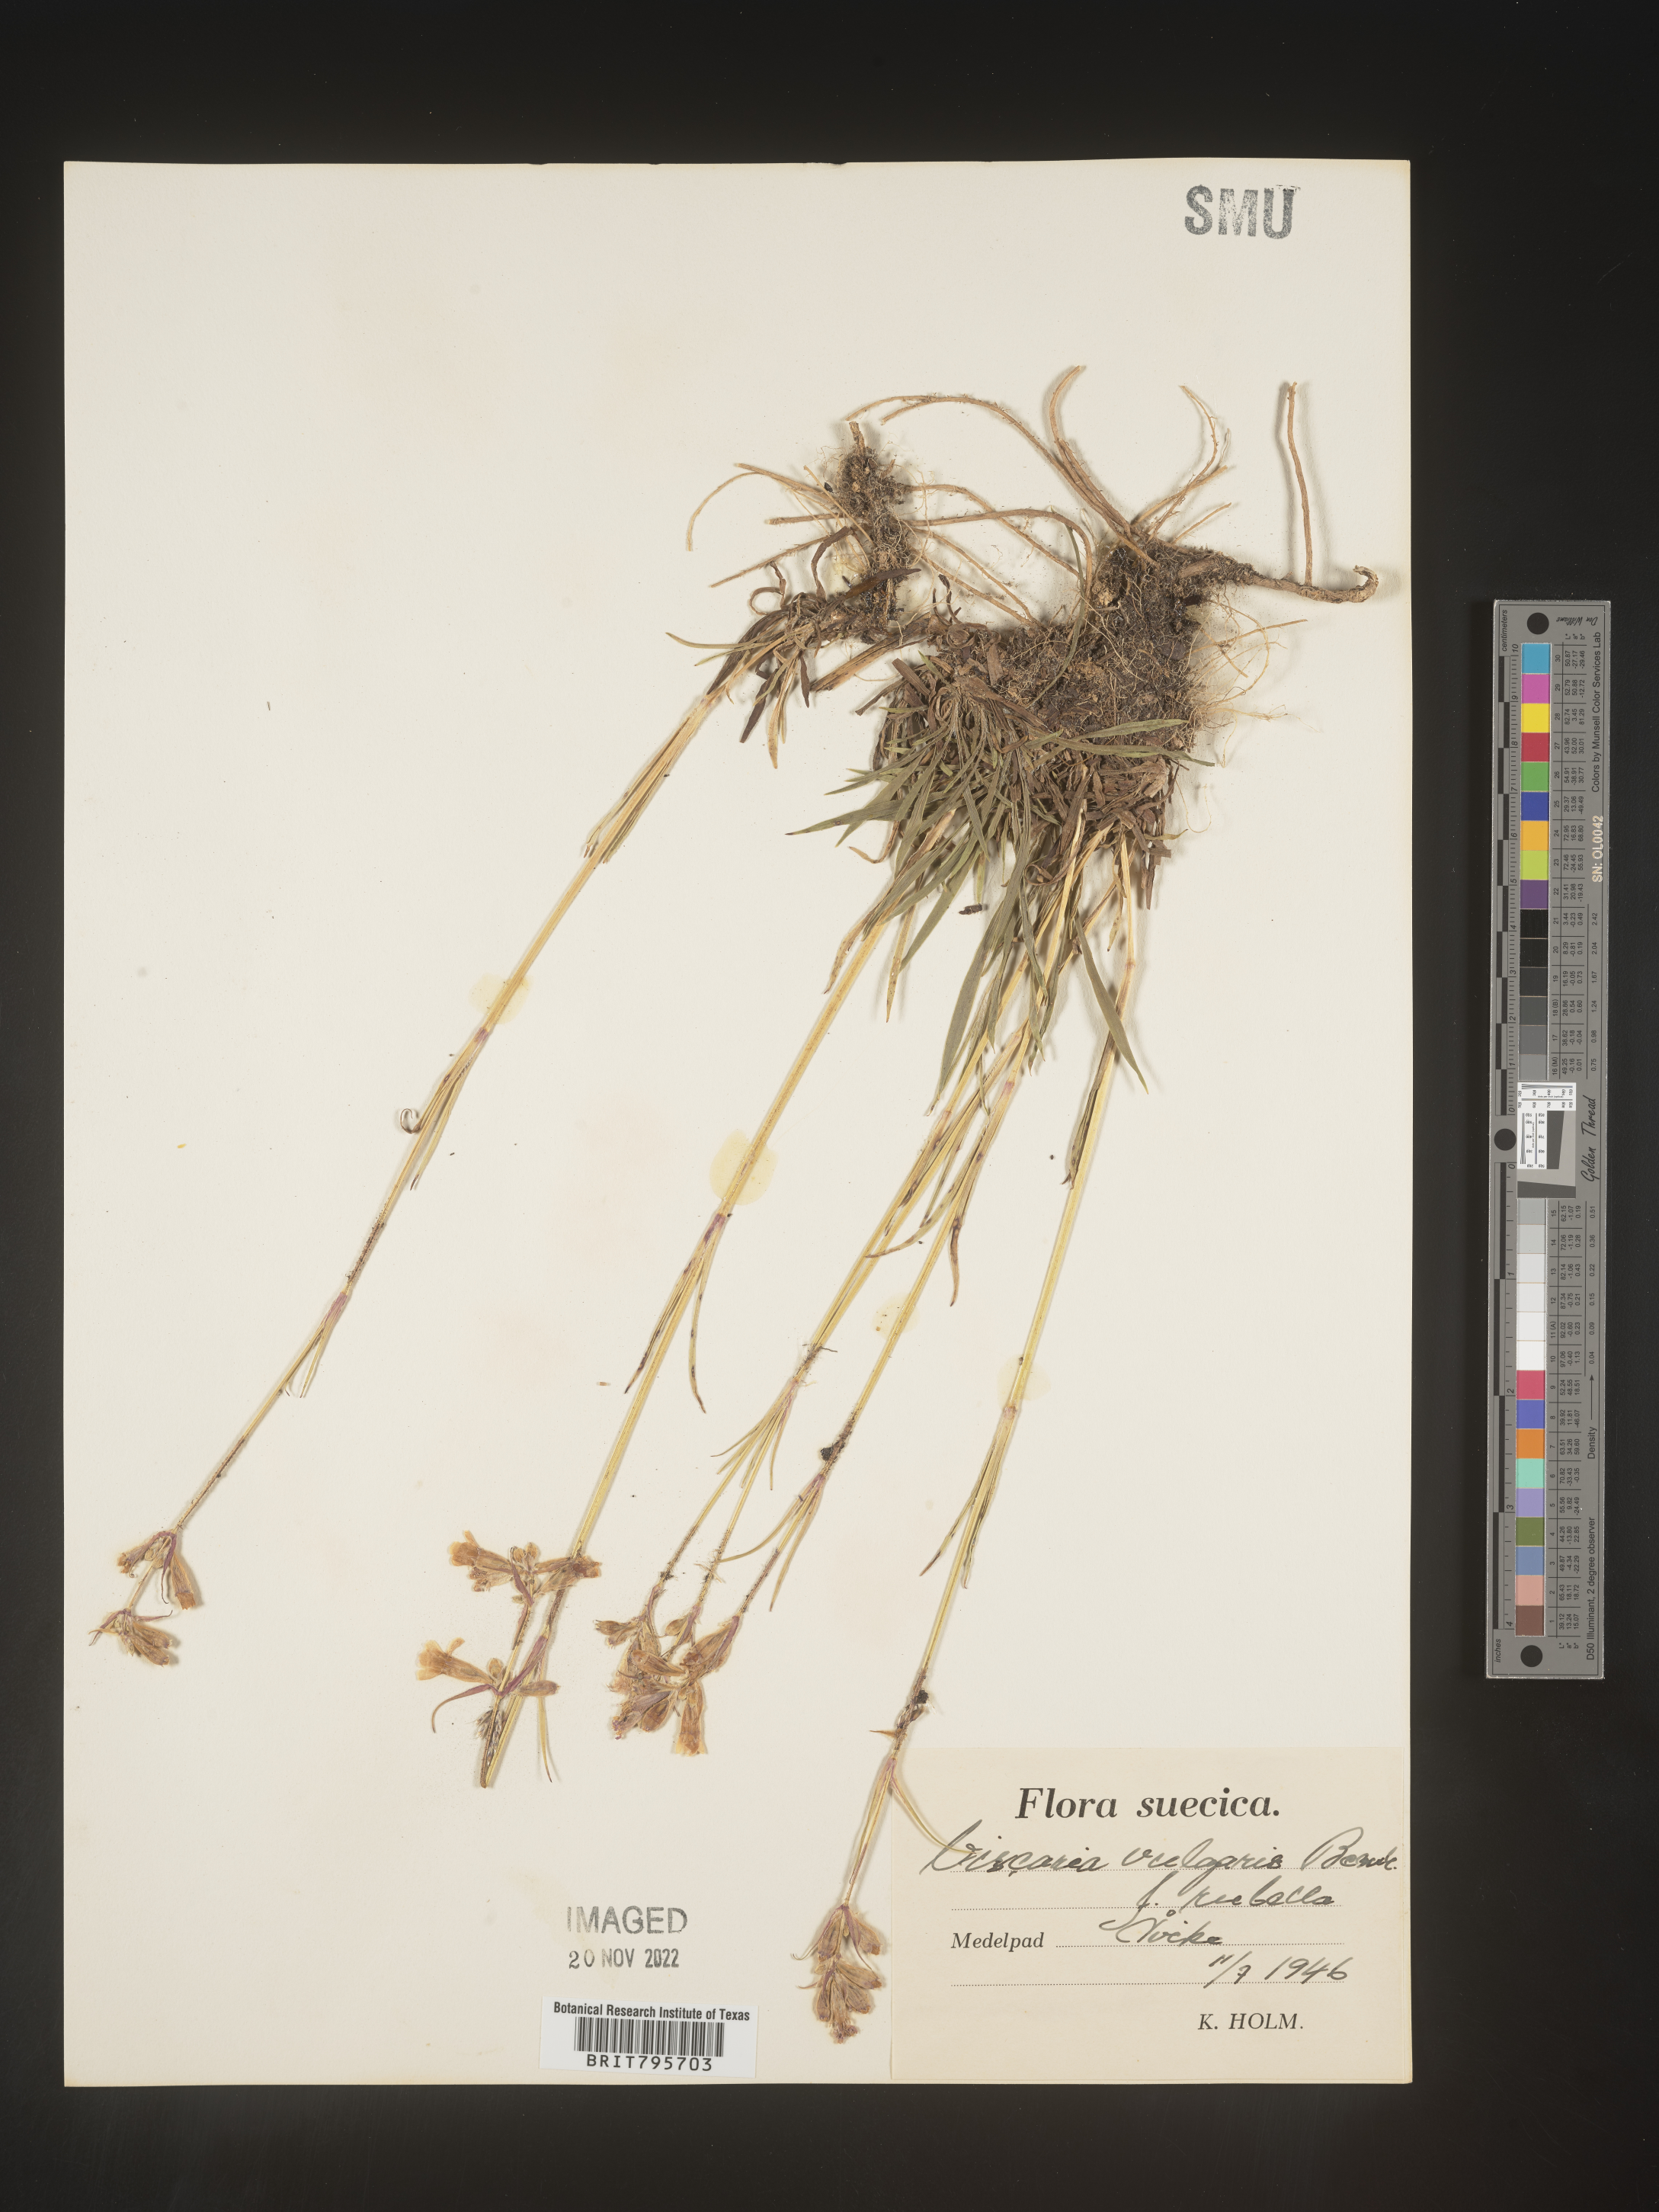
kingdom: Plantae
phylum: Tracheophyta
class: Magnoliopsida
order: Caryophyllales
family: Caryophyllaceae
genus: Viscaria
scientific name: Viscaria
